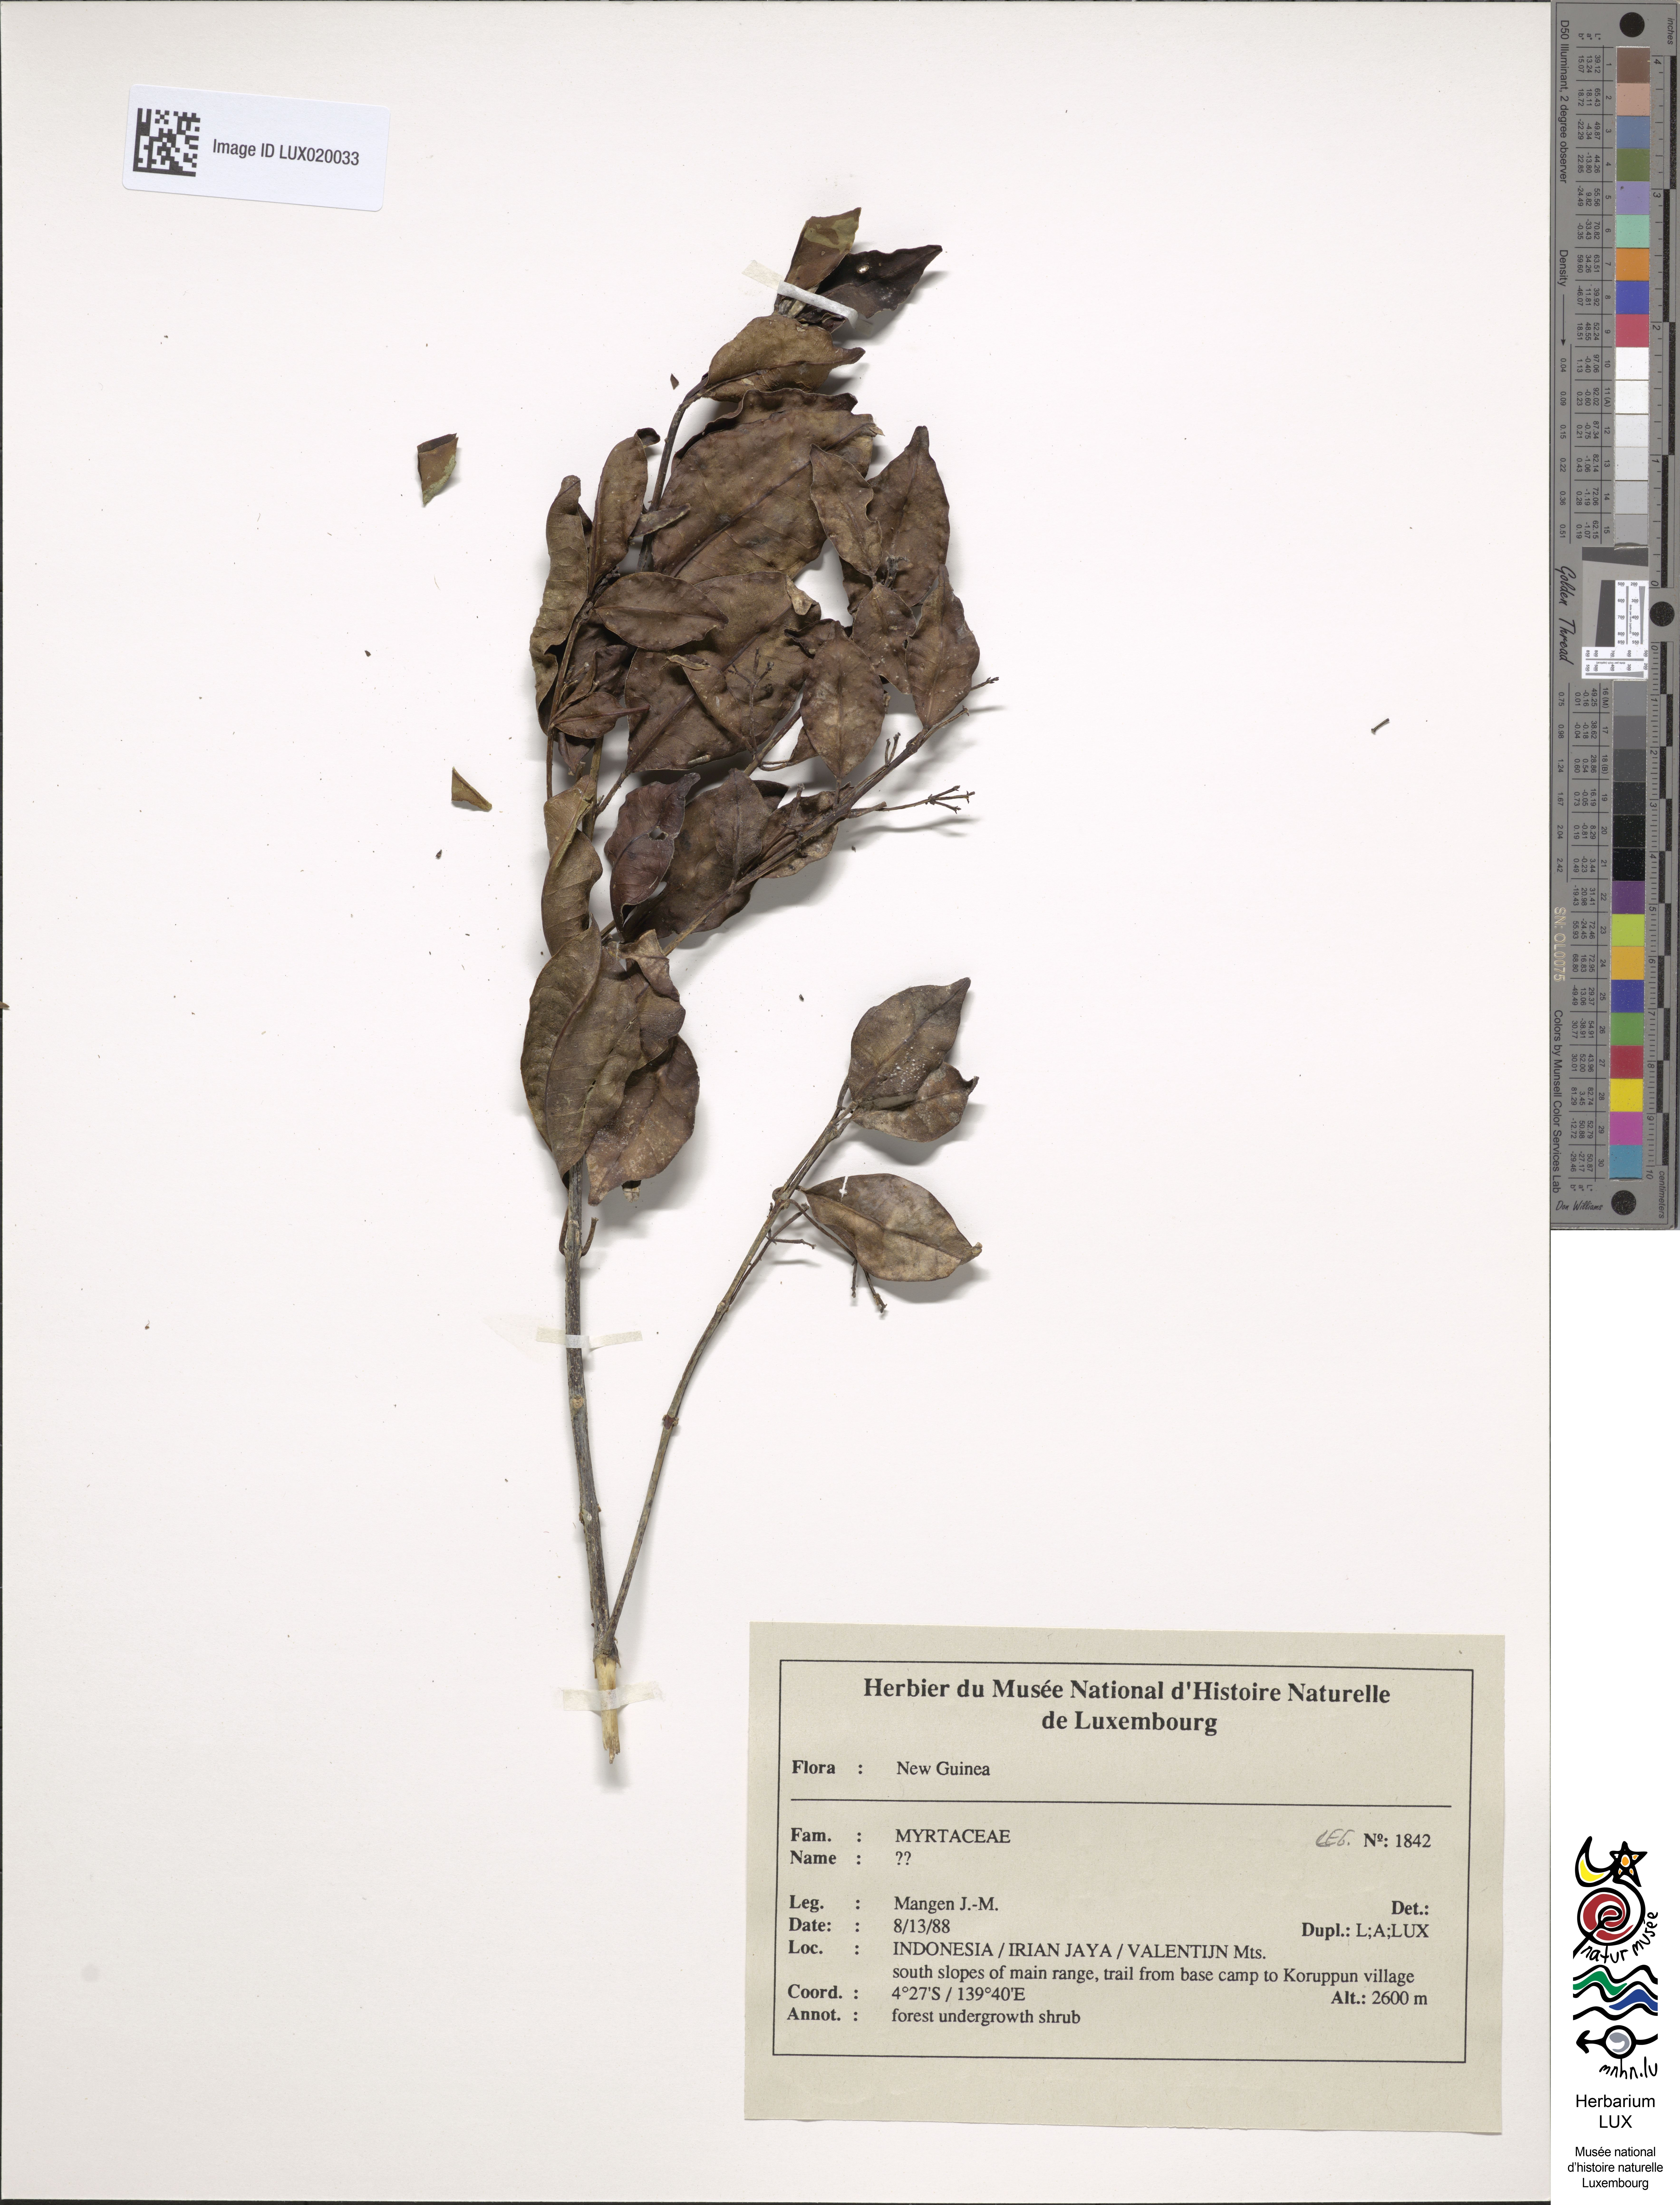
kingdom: Plantae
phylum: Tracheophyta
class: Magnoliopsida
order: Myrtales
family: Myrtaceae
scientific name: Myrtaceae
